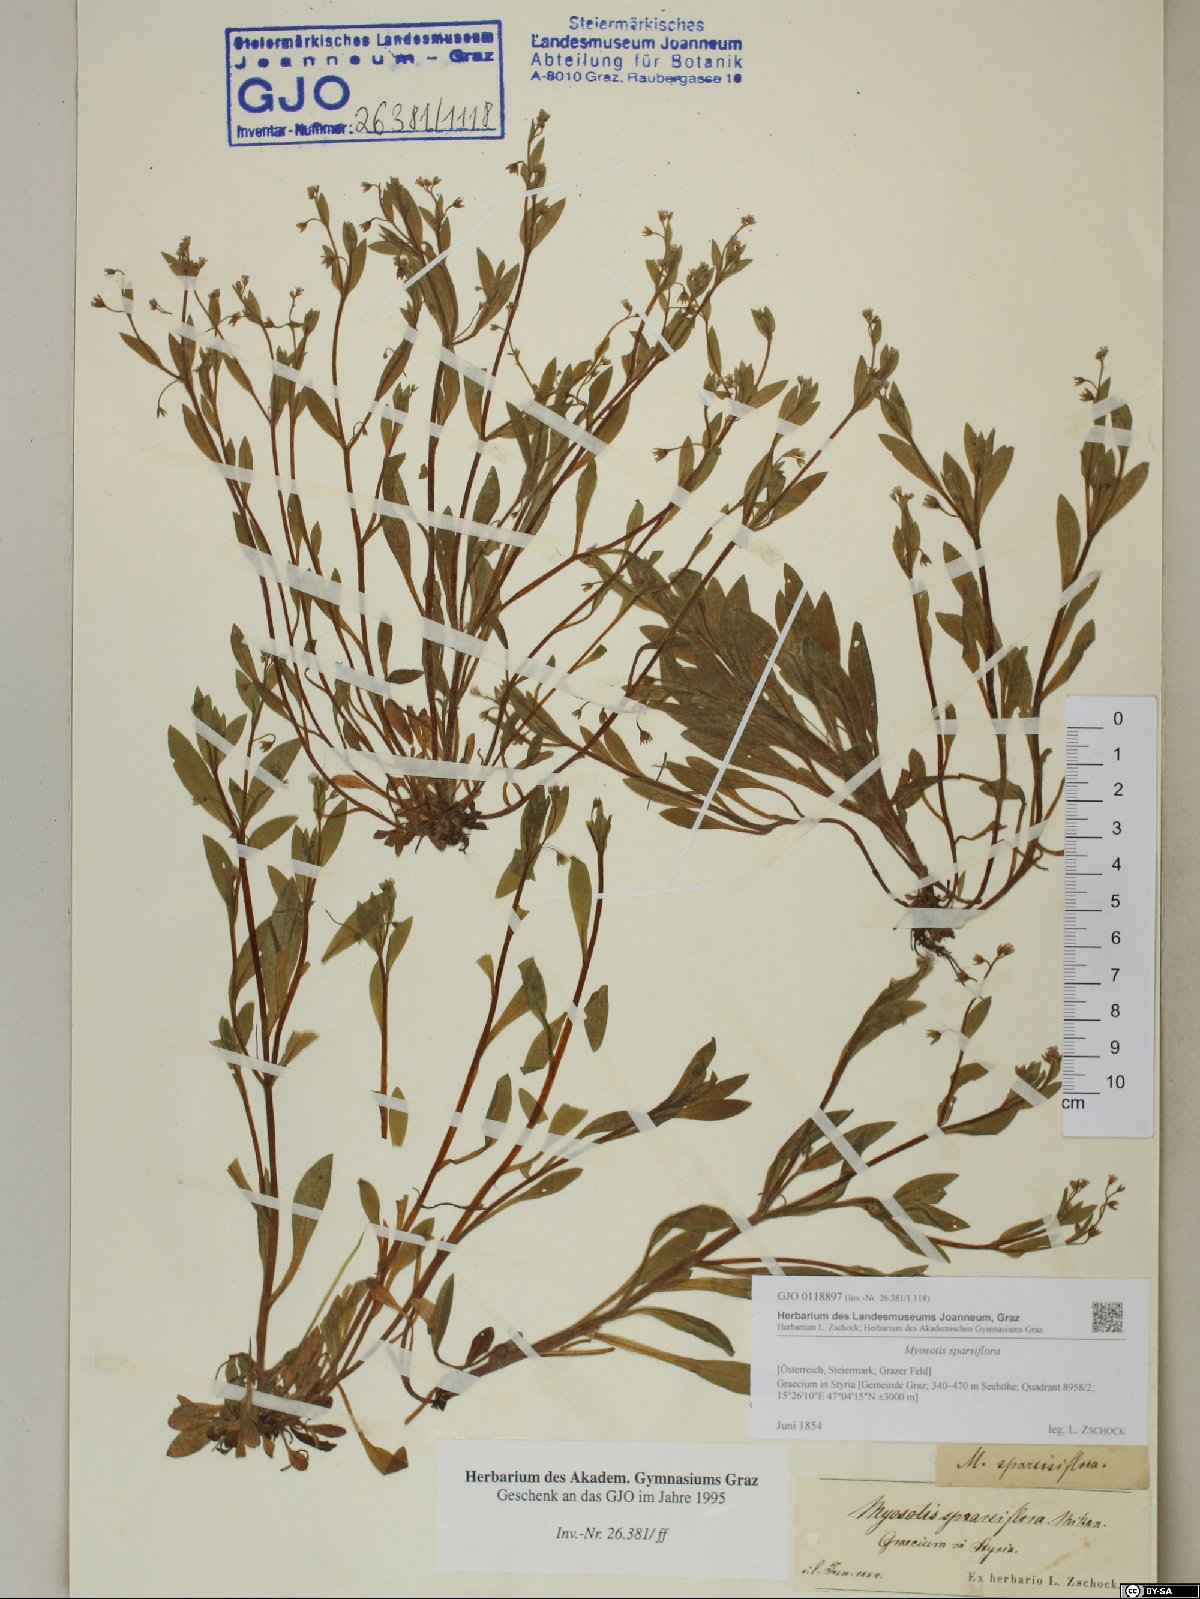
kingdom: Plantae
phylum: Tracheophyta
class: Magnoliopsida
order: Boraginales
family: Boraginaceae
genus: Myosotis
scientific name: Myosotis sparsiflora
